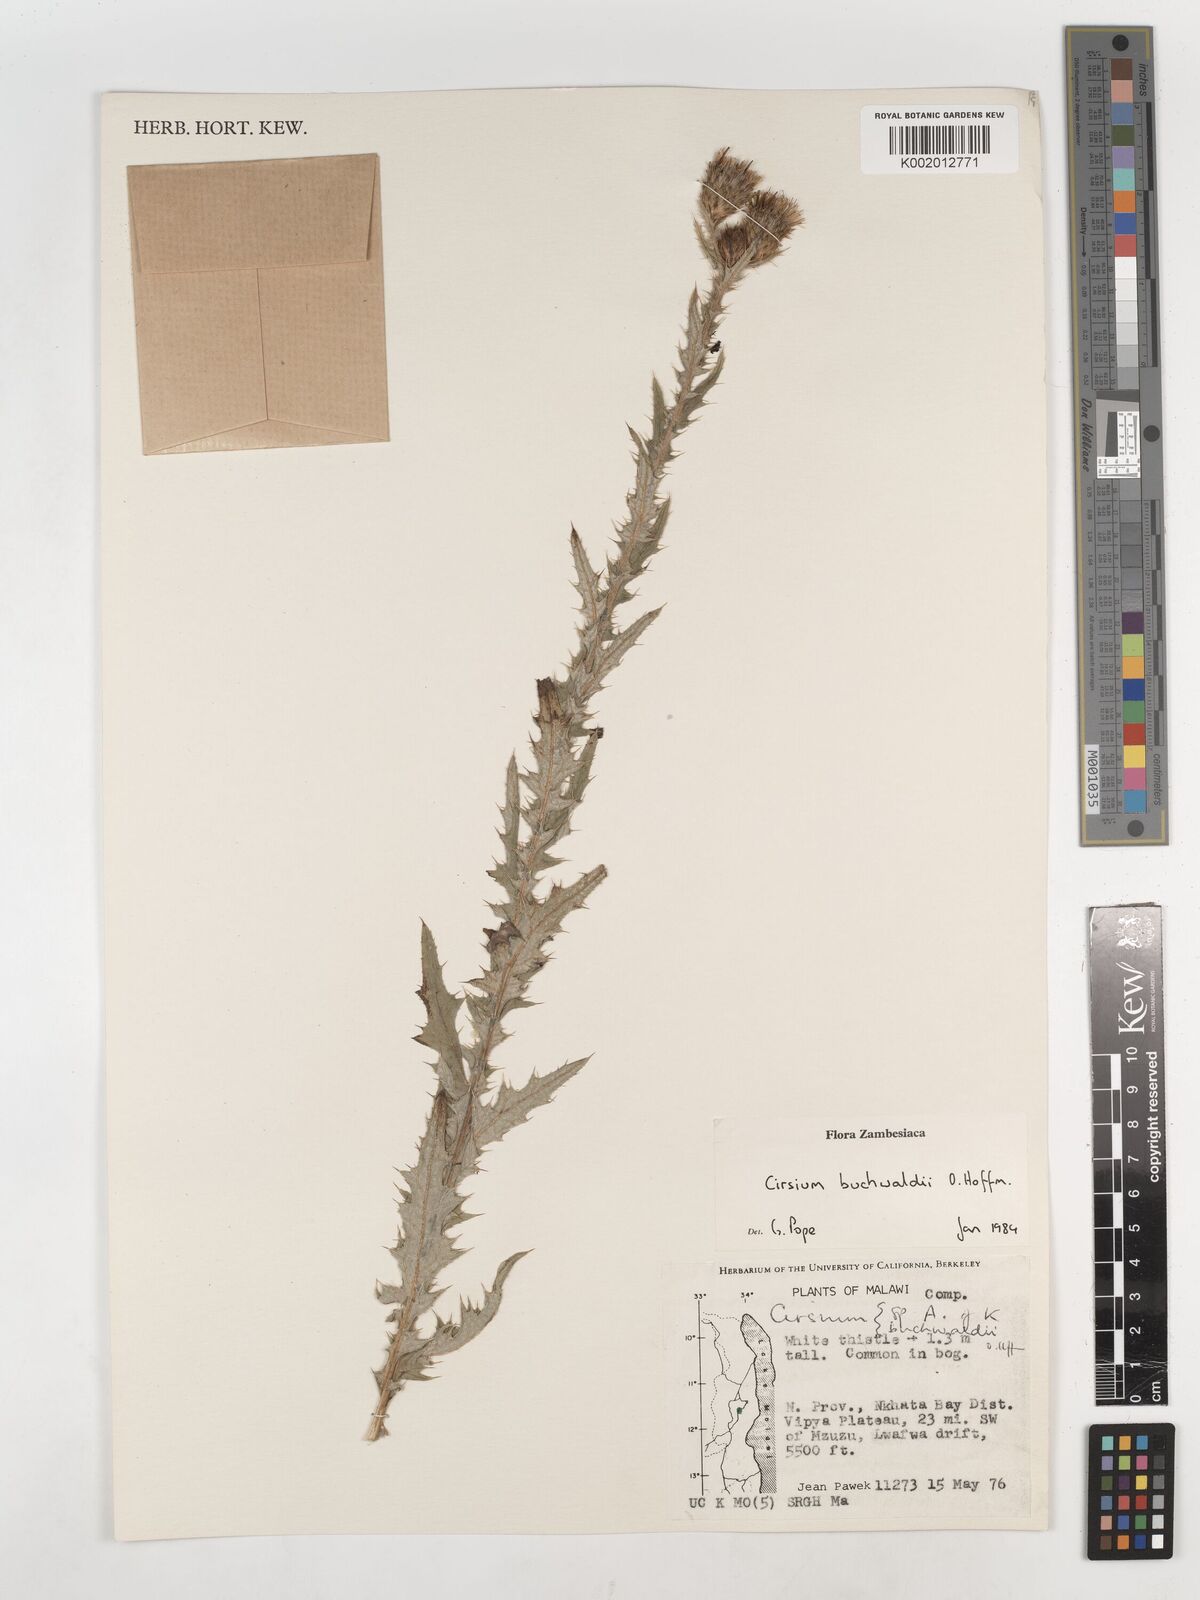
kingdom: Plantae
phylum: Tracheophyta
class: Magnoliopsida
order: Asterales
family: Asteraceae
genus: Cirsium
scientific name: Cirsium buchwaldii
